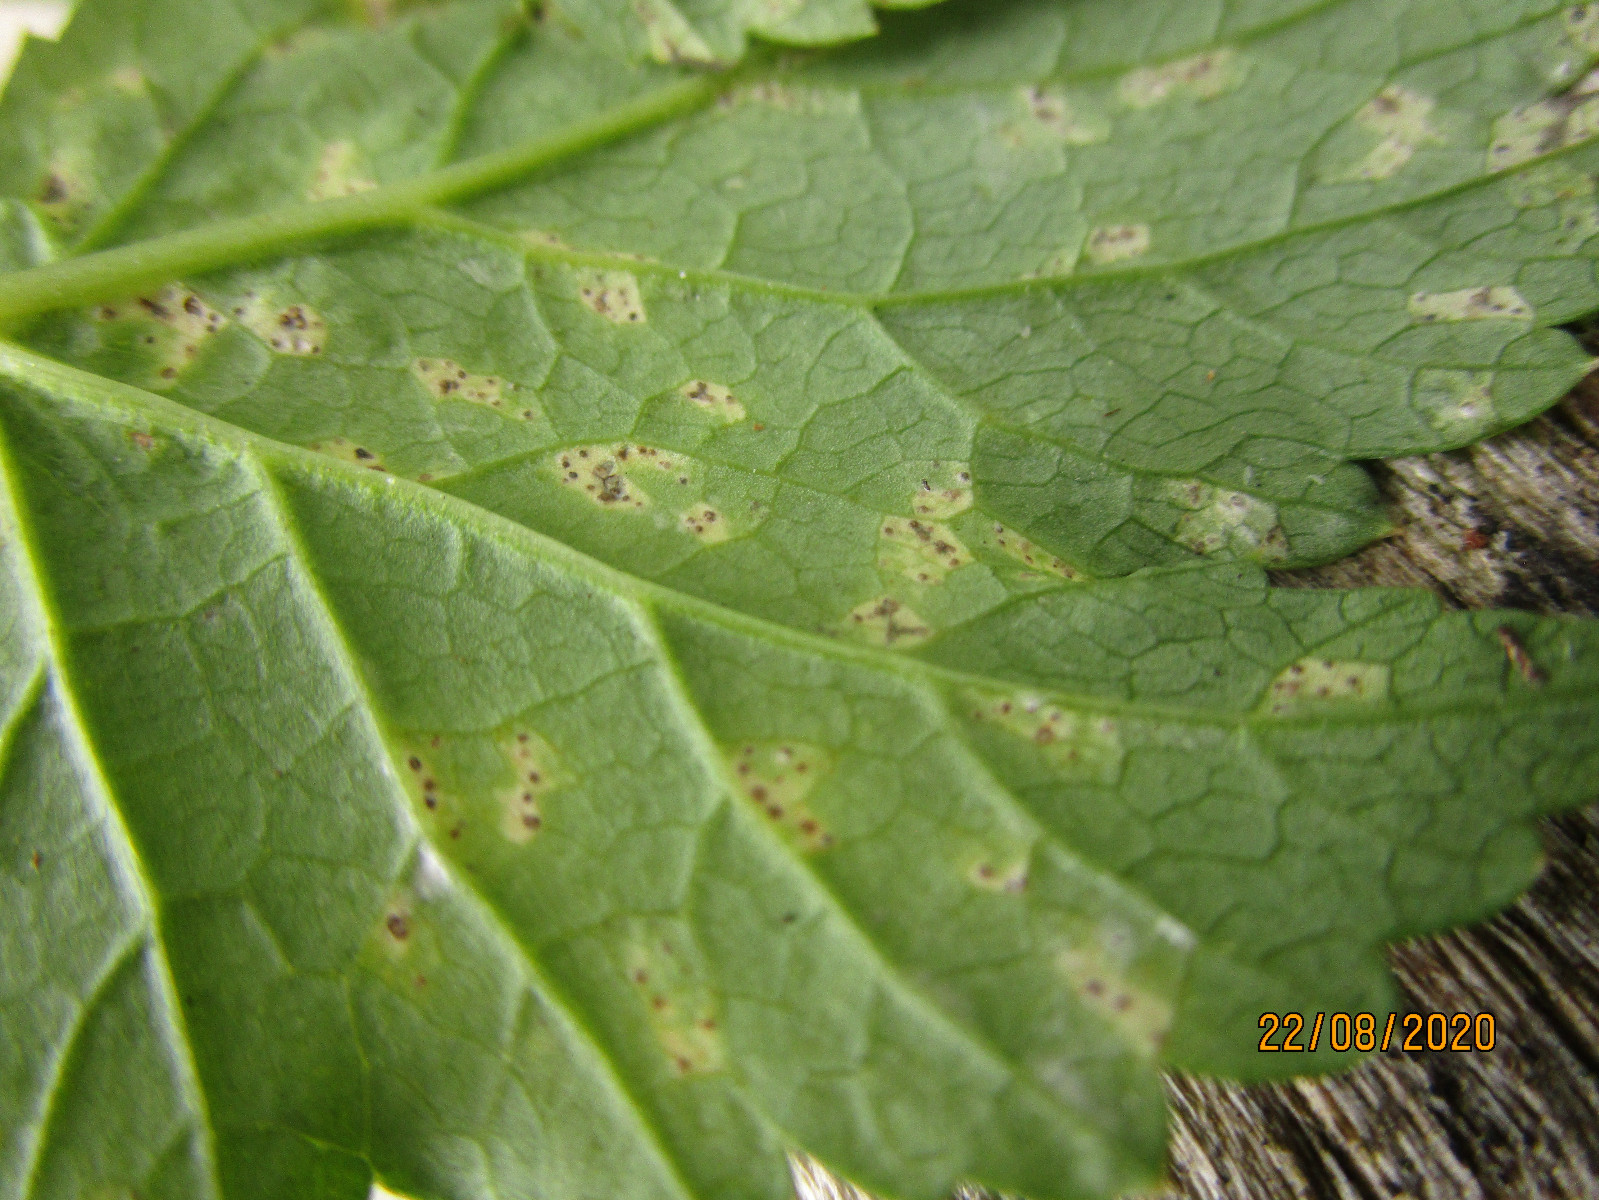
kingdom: Fungi
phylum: Ascomycota
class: Dothideomycetes
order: Mycosphaerellales
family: Mycosphaerellaceae
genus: Mycosphaerella
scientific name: Mycosphaerella podagrariae
